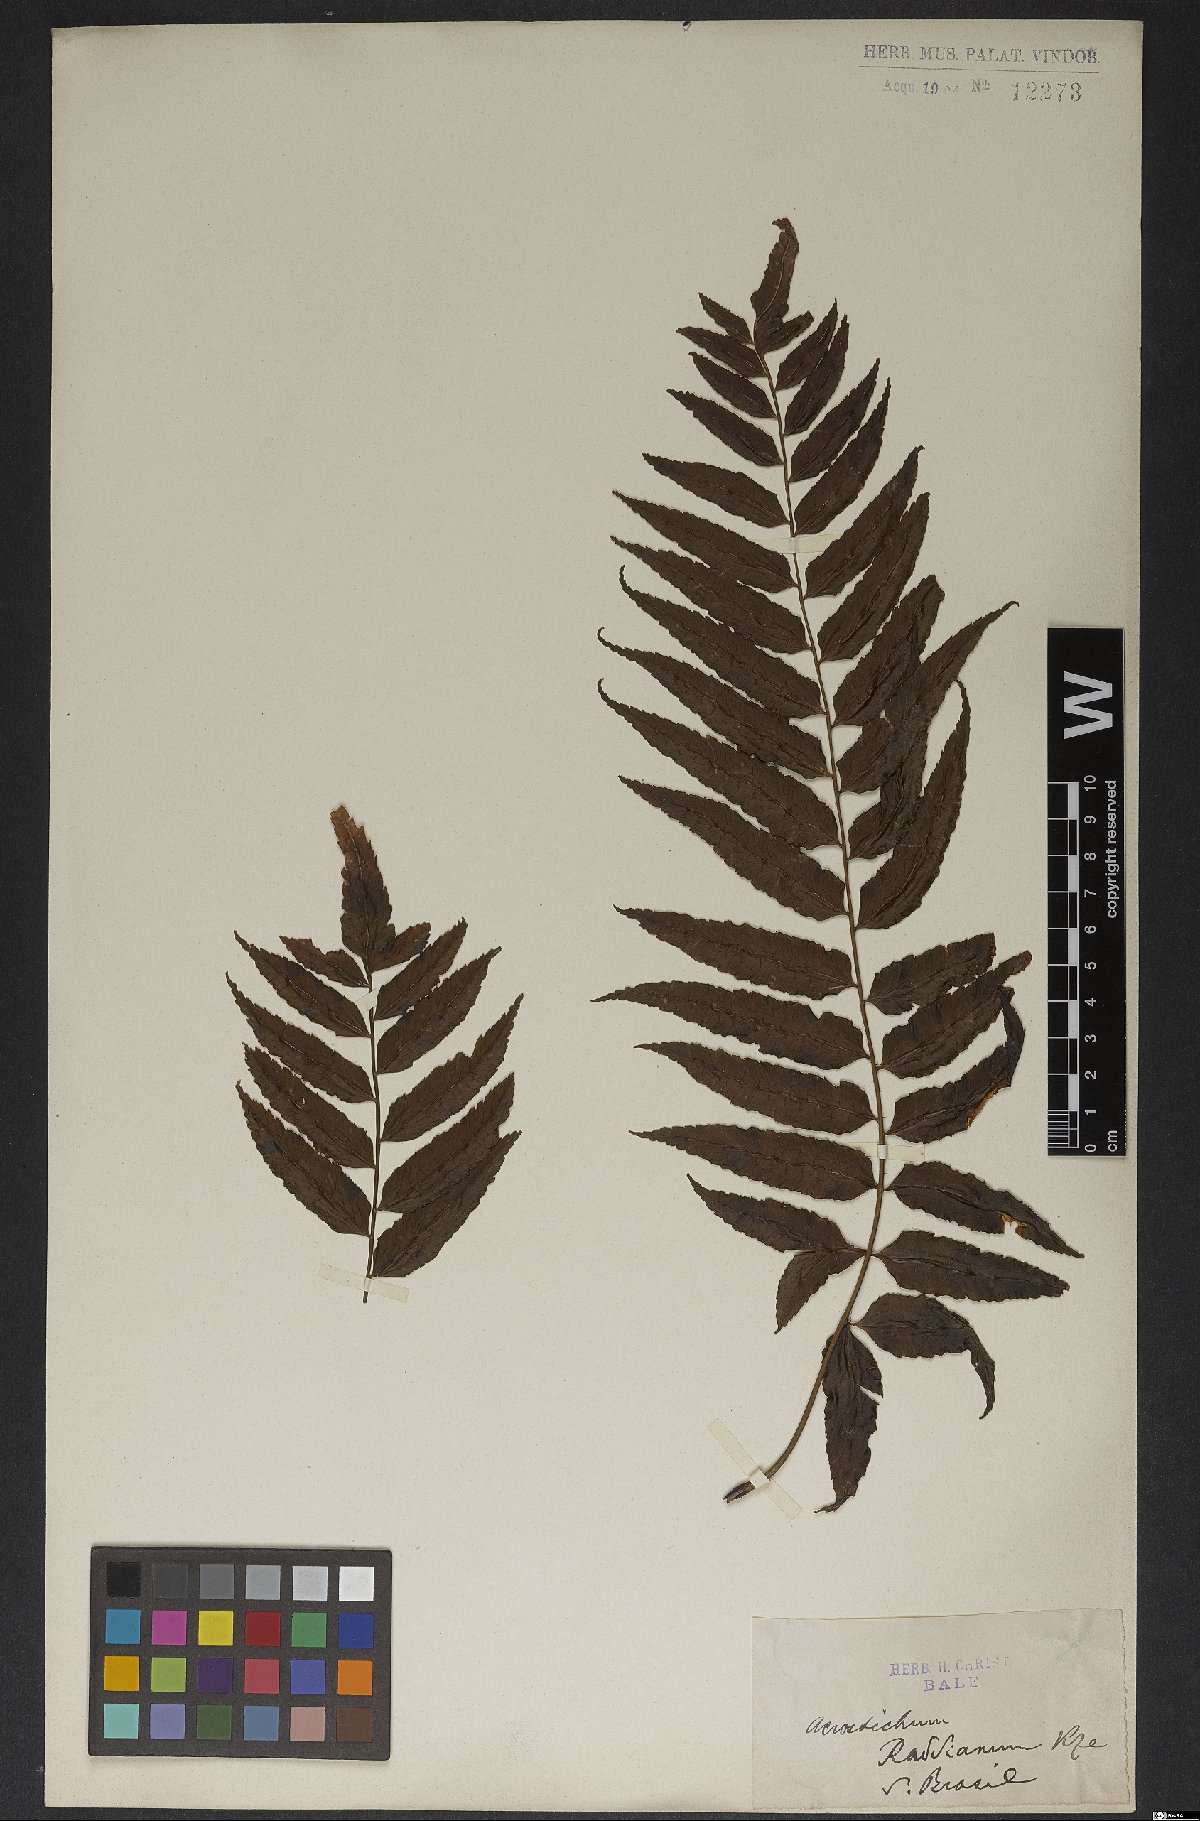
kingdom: Plantae
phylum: Tracheophyta
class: Polypodiopsida
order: Polypodiales
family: Dryopteridaceae
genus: Mickelia
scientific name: Mickelia guianensis
